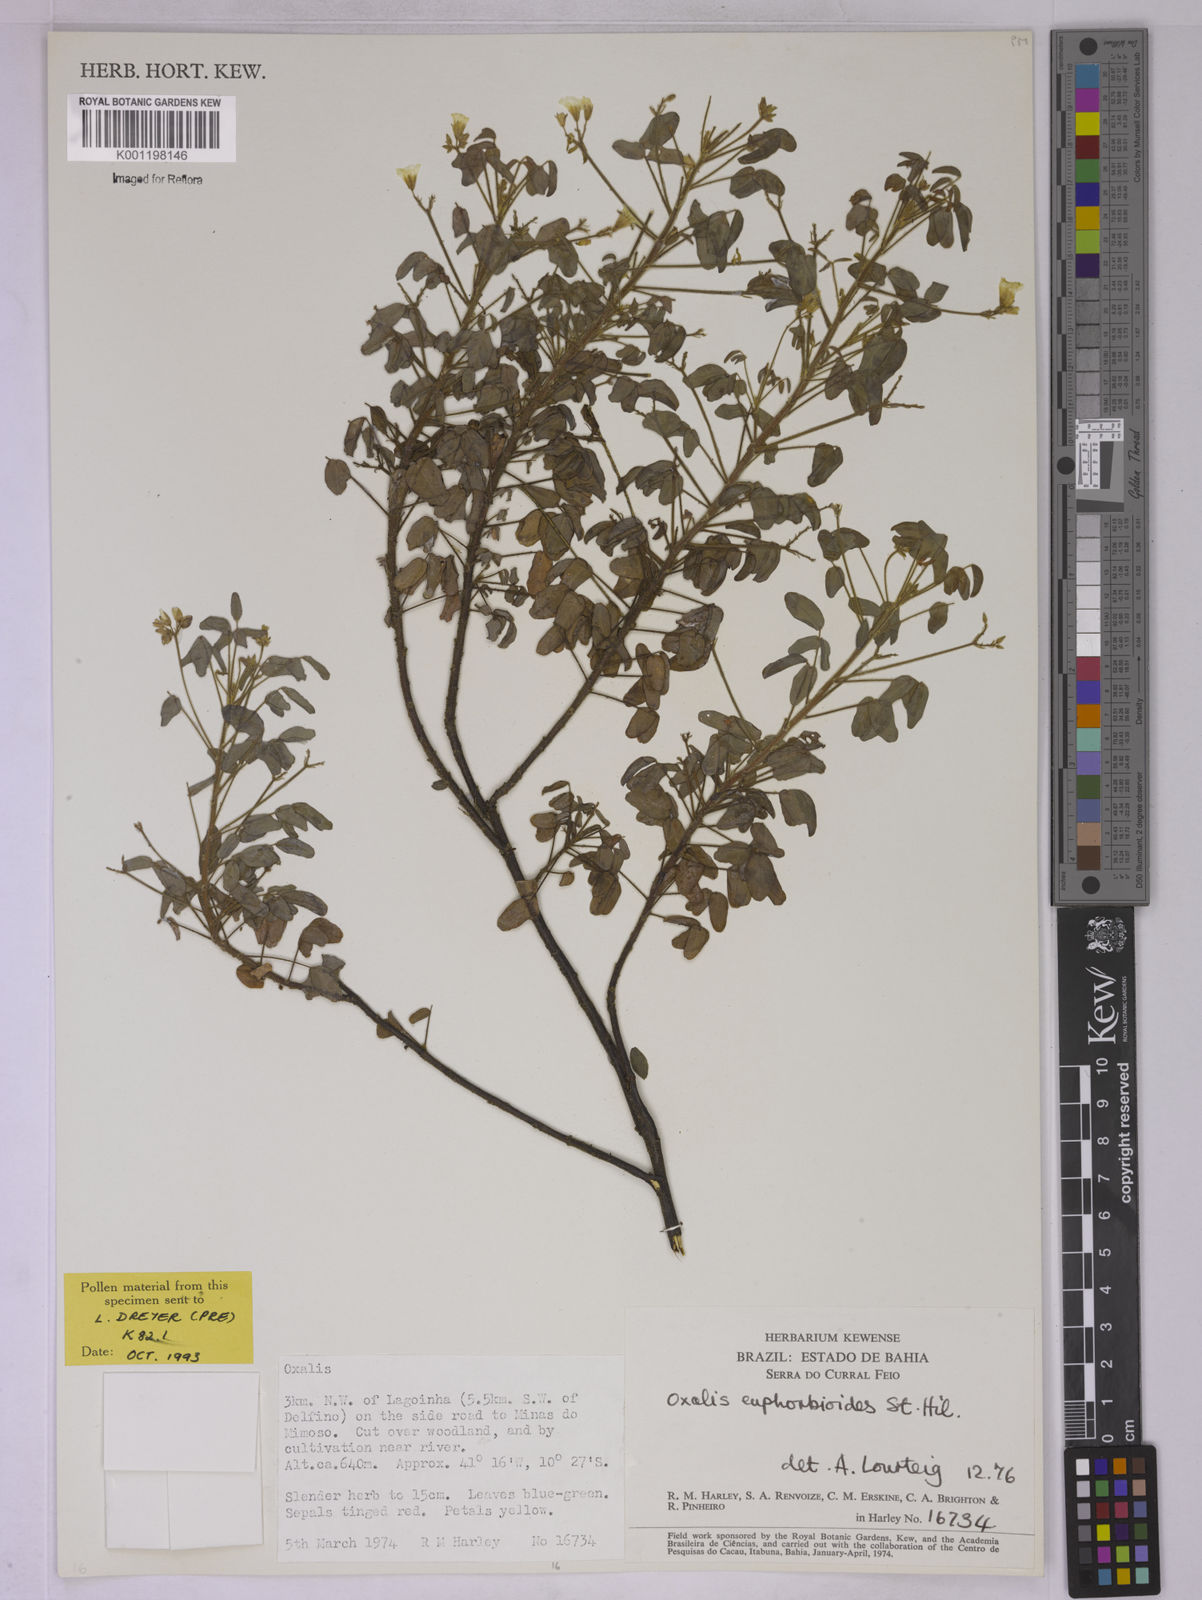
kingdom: Plantae
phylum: Tracheophyta
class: Magnoliopsida
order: Oxalidales
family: Oxalidaceae
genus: Oxalis
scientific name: Oxalis divaricata
